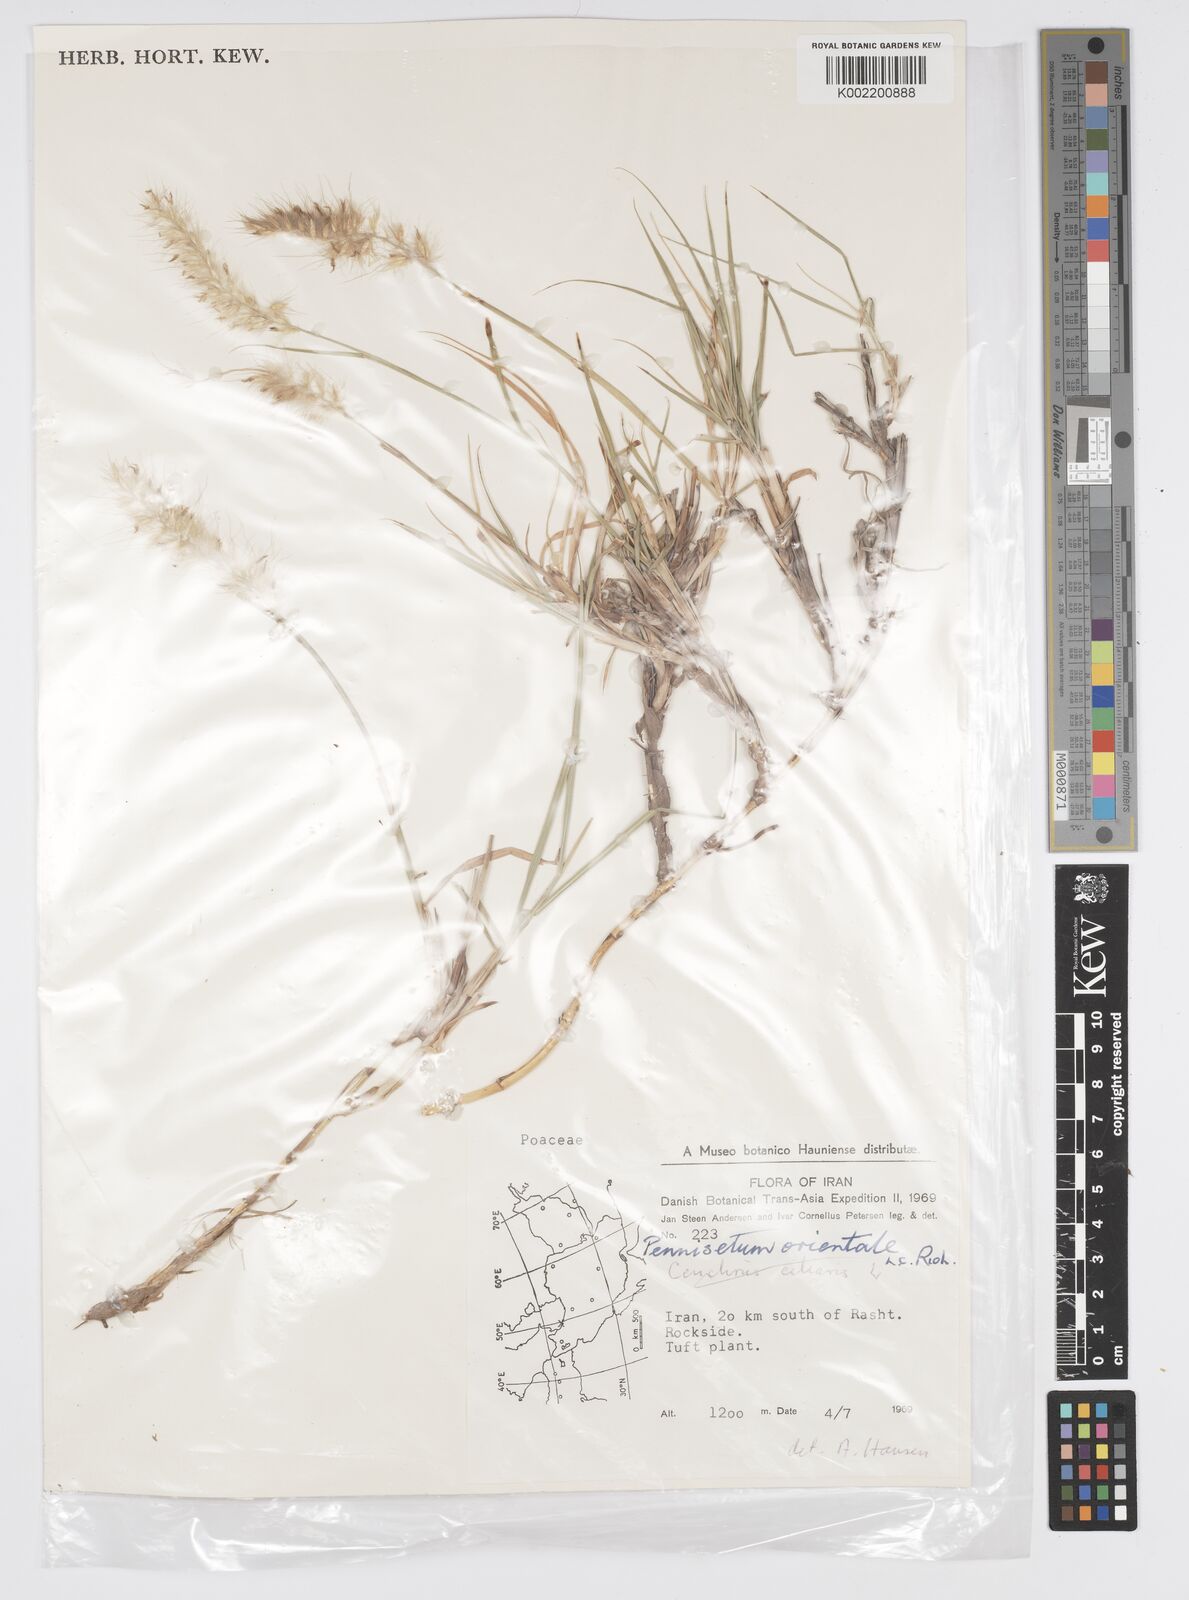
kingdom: Plantae
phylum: Tracheophyta
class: Liliopsida
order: Poales
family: Poaceae
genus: Cenchrus
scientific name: Cenchrus orientalis
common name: Oriental fountain grass
